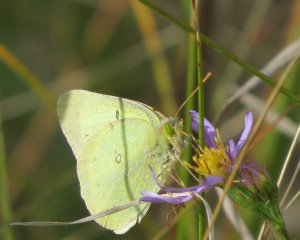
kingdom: Animalia
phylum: Arthropoda
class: Insecta
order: Lepidoptera
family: Pieridae
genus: Colias
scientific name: Colias philodice
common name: Clouded Sulphur
